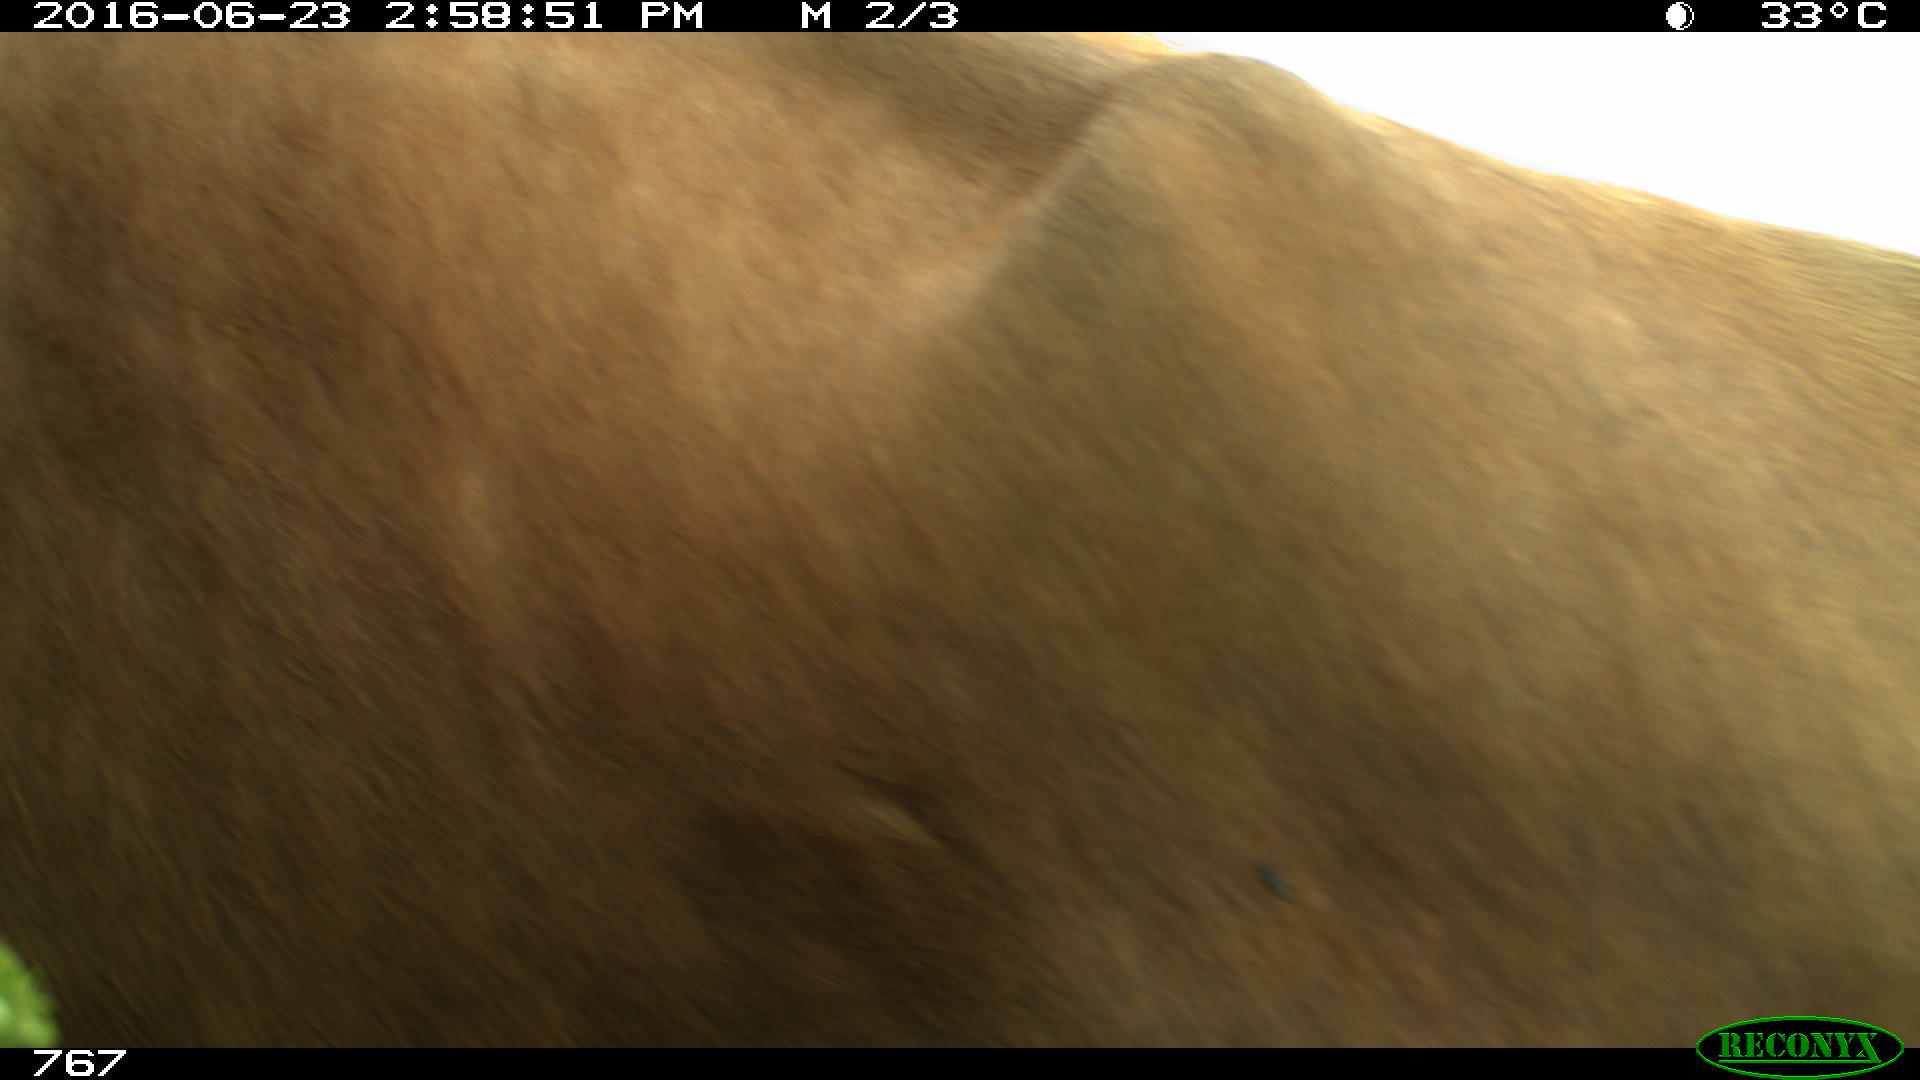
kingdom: Animalia
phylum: Chordata
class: Mammalia
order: Artiodactyla
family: Bovidae
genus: Bos
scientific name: Bos taurus
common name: Domesticated cattle
